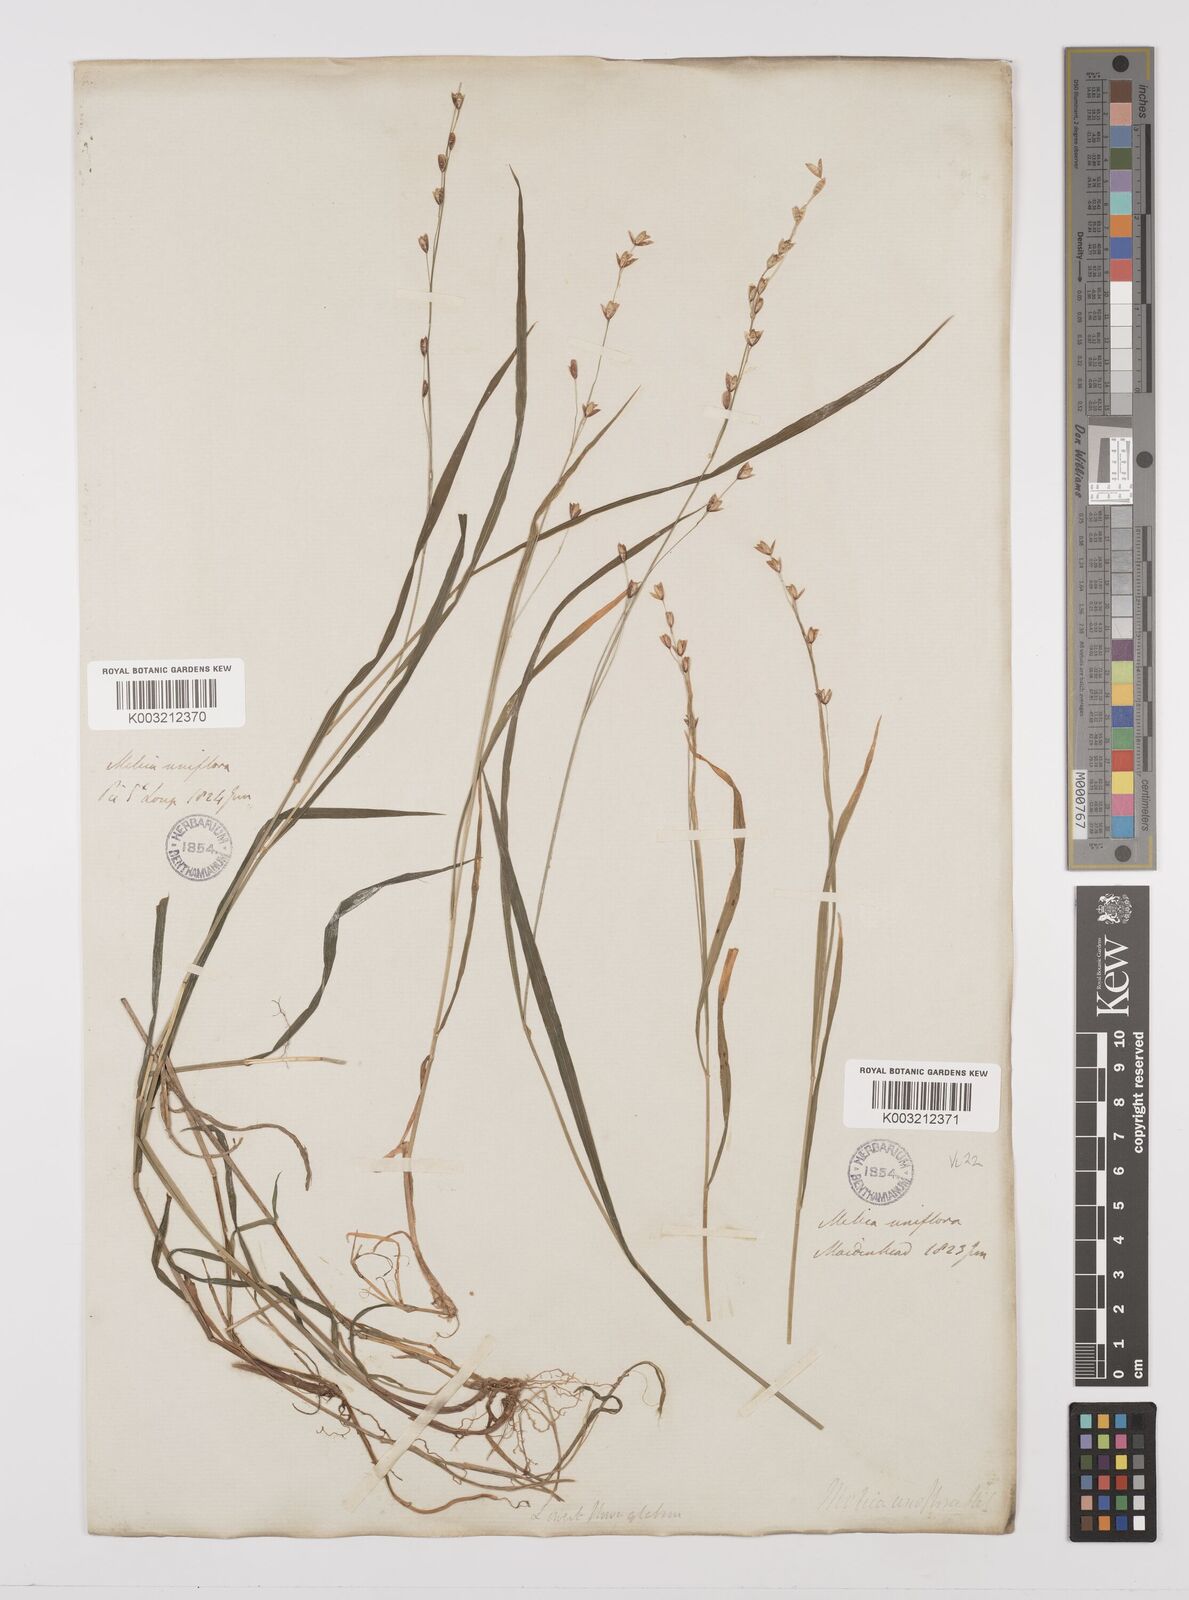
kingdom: Plantae
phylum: Tracheophyta
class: Liliopsida
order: Poales
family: Poaceae
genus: Melica
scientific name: Melica uniflora
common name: Wood melick
